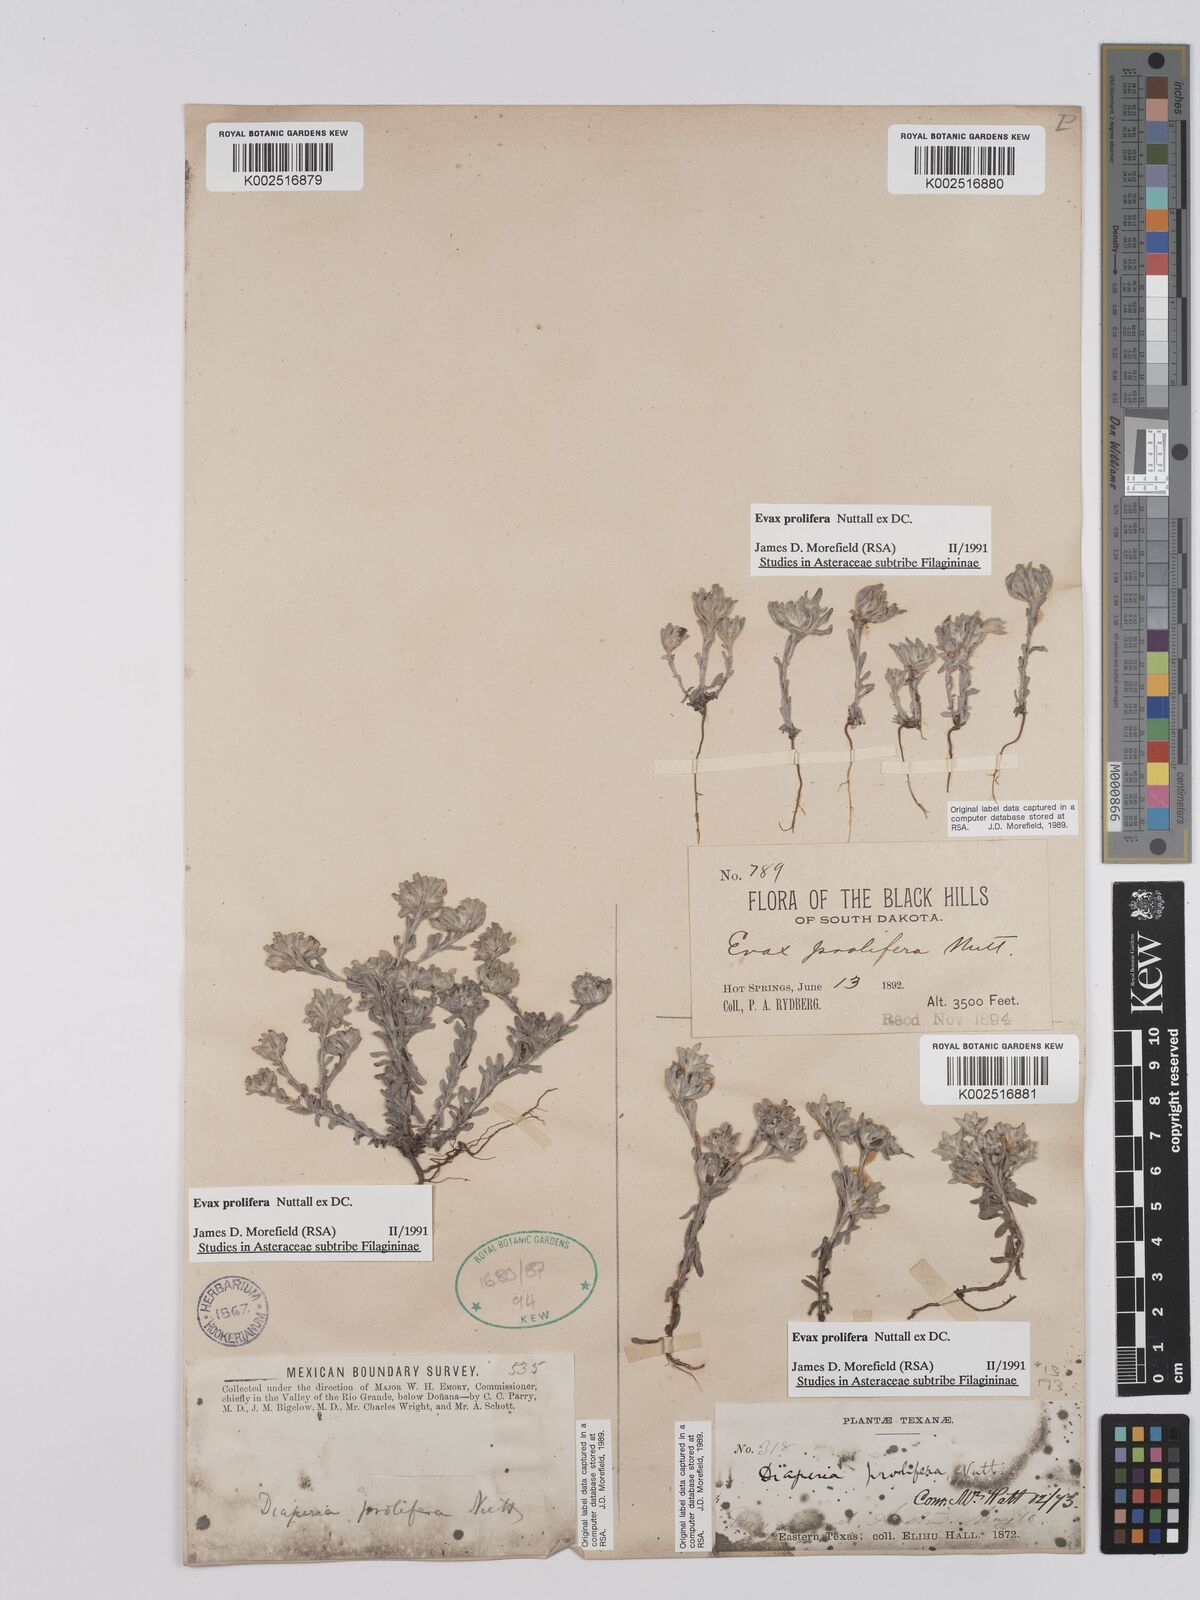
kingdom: Plantae
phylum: Tracheophyta
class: Magnoliopsida
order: Asterales
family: Asteraceae
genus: Diaperia
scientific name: Diaperia prolifera
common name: Big-head rabbit-tobacco
